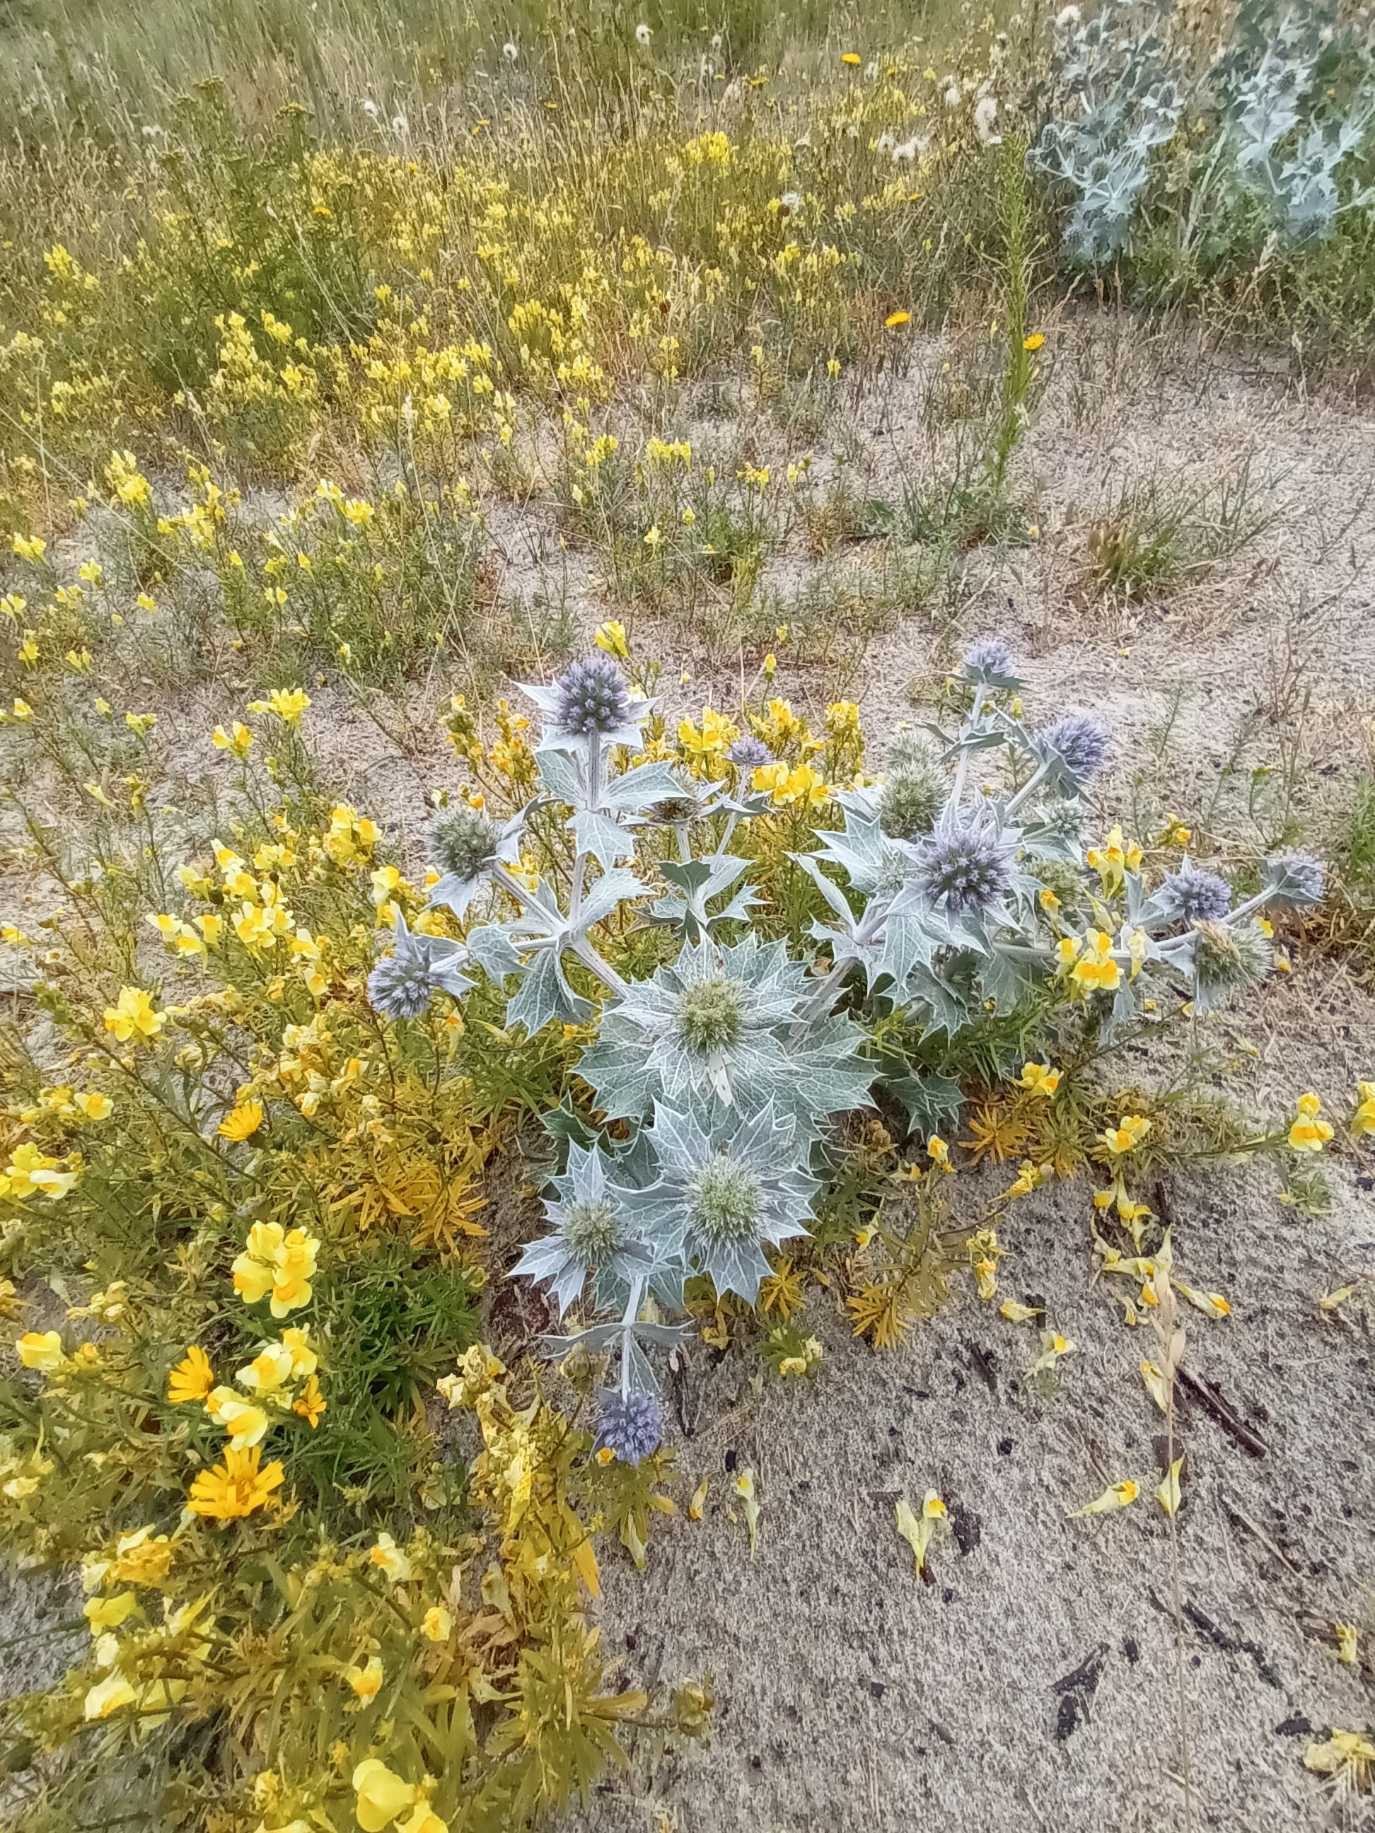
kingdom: Plantae
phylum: Tracheophyta
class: Magnoliopsida
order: Apiales
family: Apiaceae
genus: Eryngium
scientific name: Eryngium maritimum
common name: Strand-mandstro
